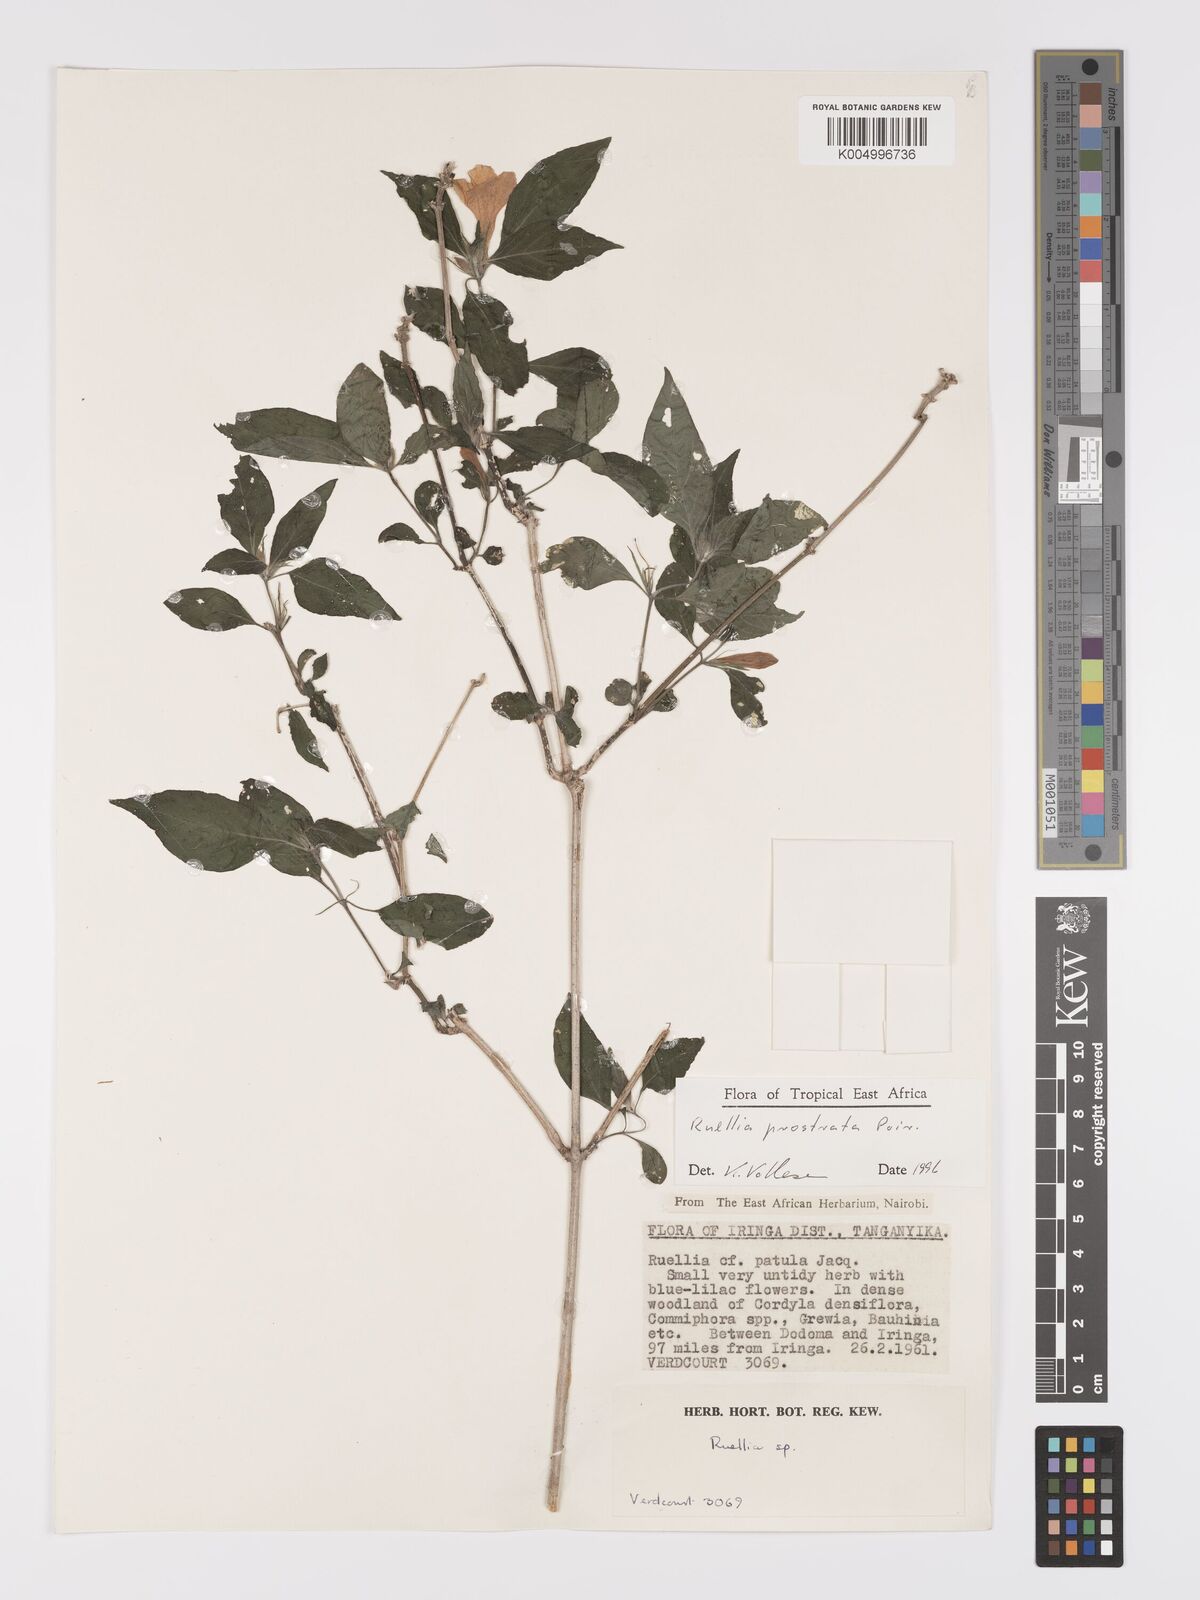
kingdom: Plantae
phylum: Tracheophyta
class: Magnoliopsida
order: Lamiales
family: Acanthaceae
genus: Ruellia
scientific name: Ruellia
